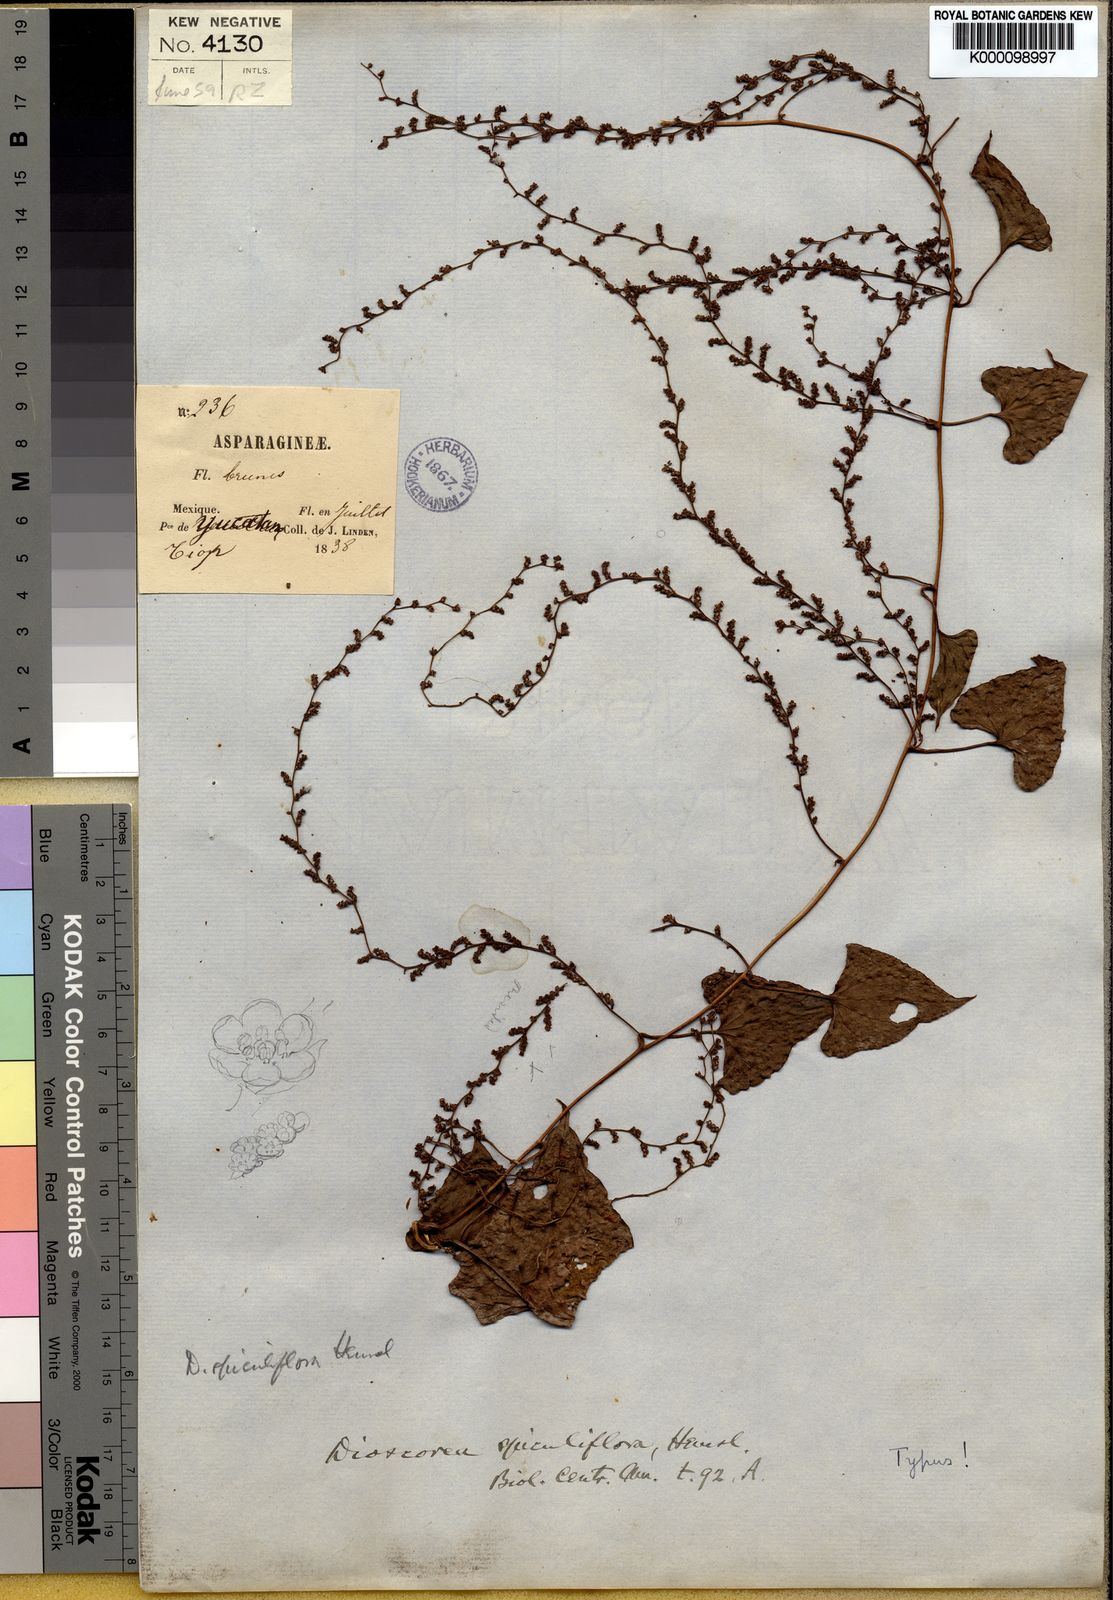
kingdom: Plantae
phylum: Tracheophyta
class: Liliopsida
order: Dioscoreales
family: Dioscoreaceae
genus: Dioscorea
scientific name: Dioscorea spiculiflora
